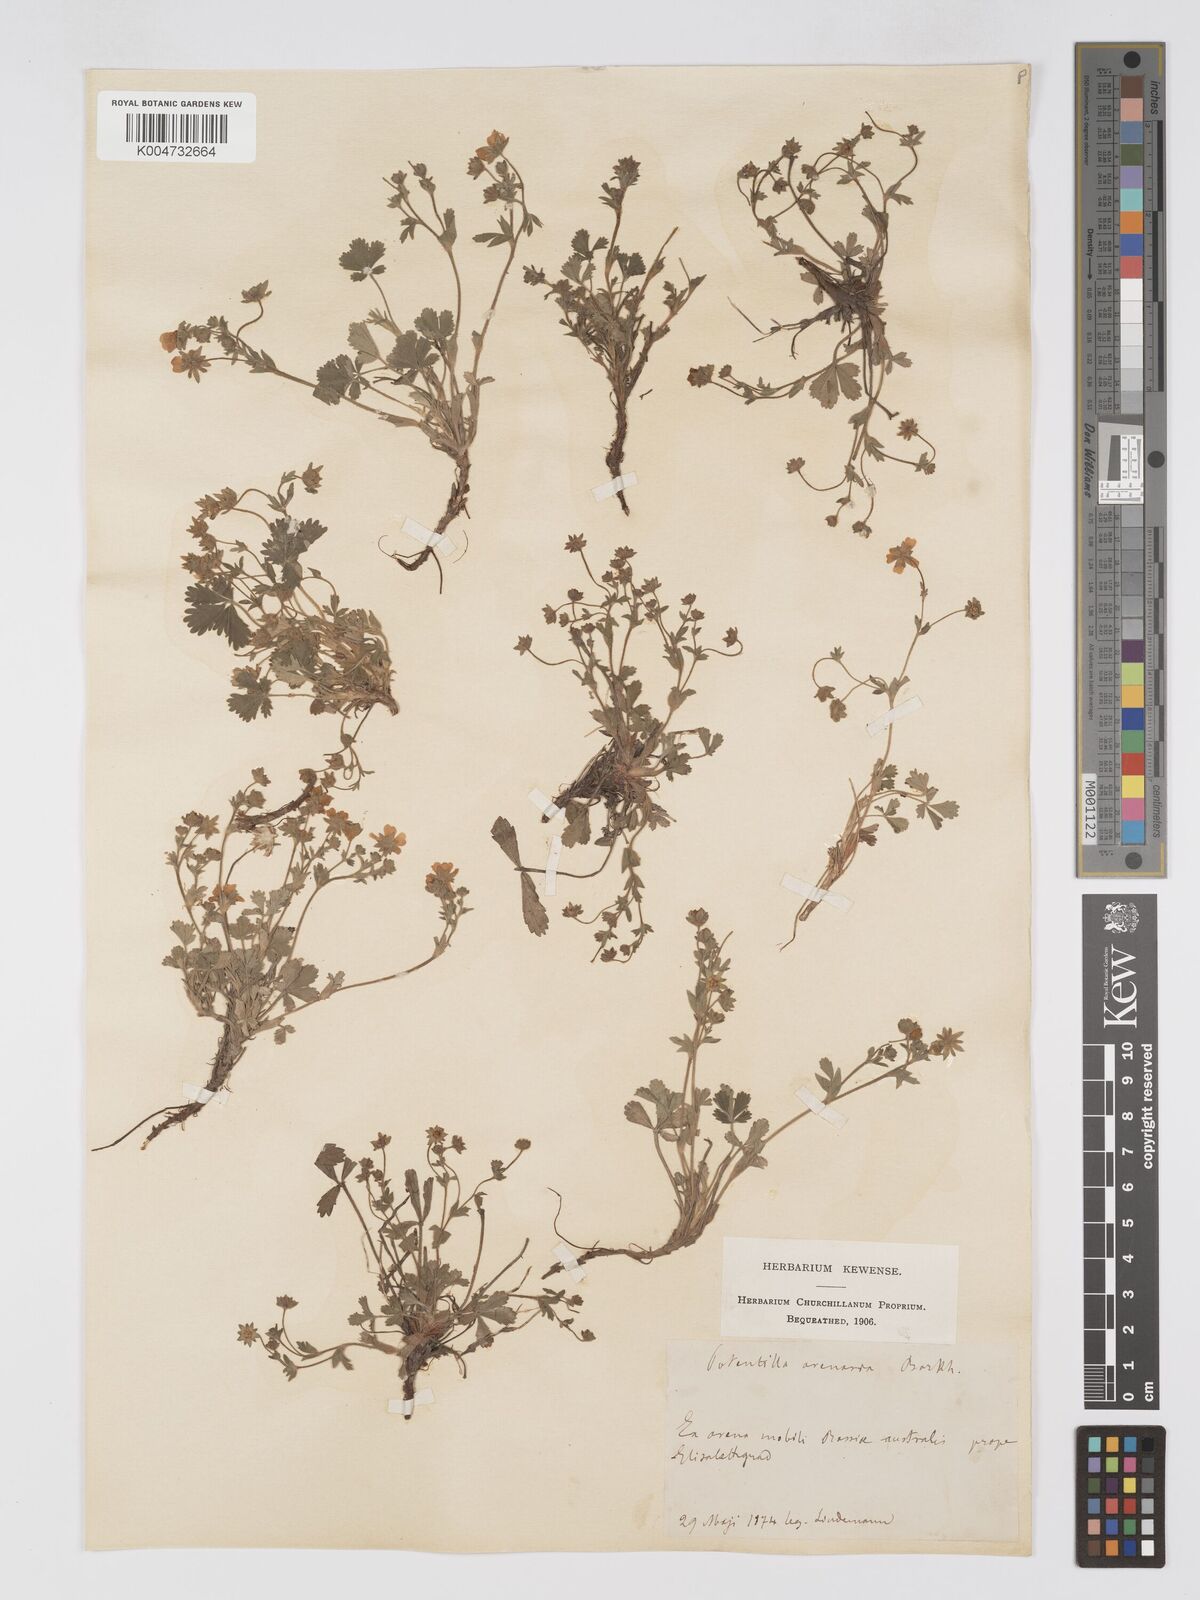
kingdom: Plantae
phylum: Tracheophyta
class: Magnoliopsida
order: Rosales
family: Rosaceae
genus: Potentilla
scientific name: Potentilla cinerea
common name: Ashy cinquefoil
